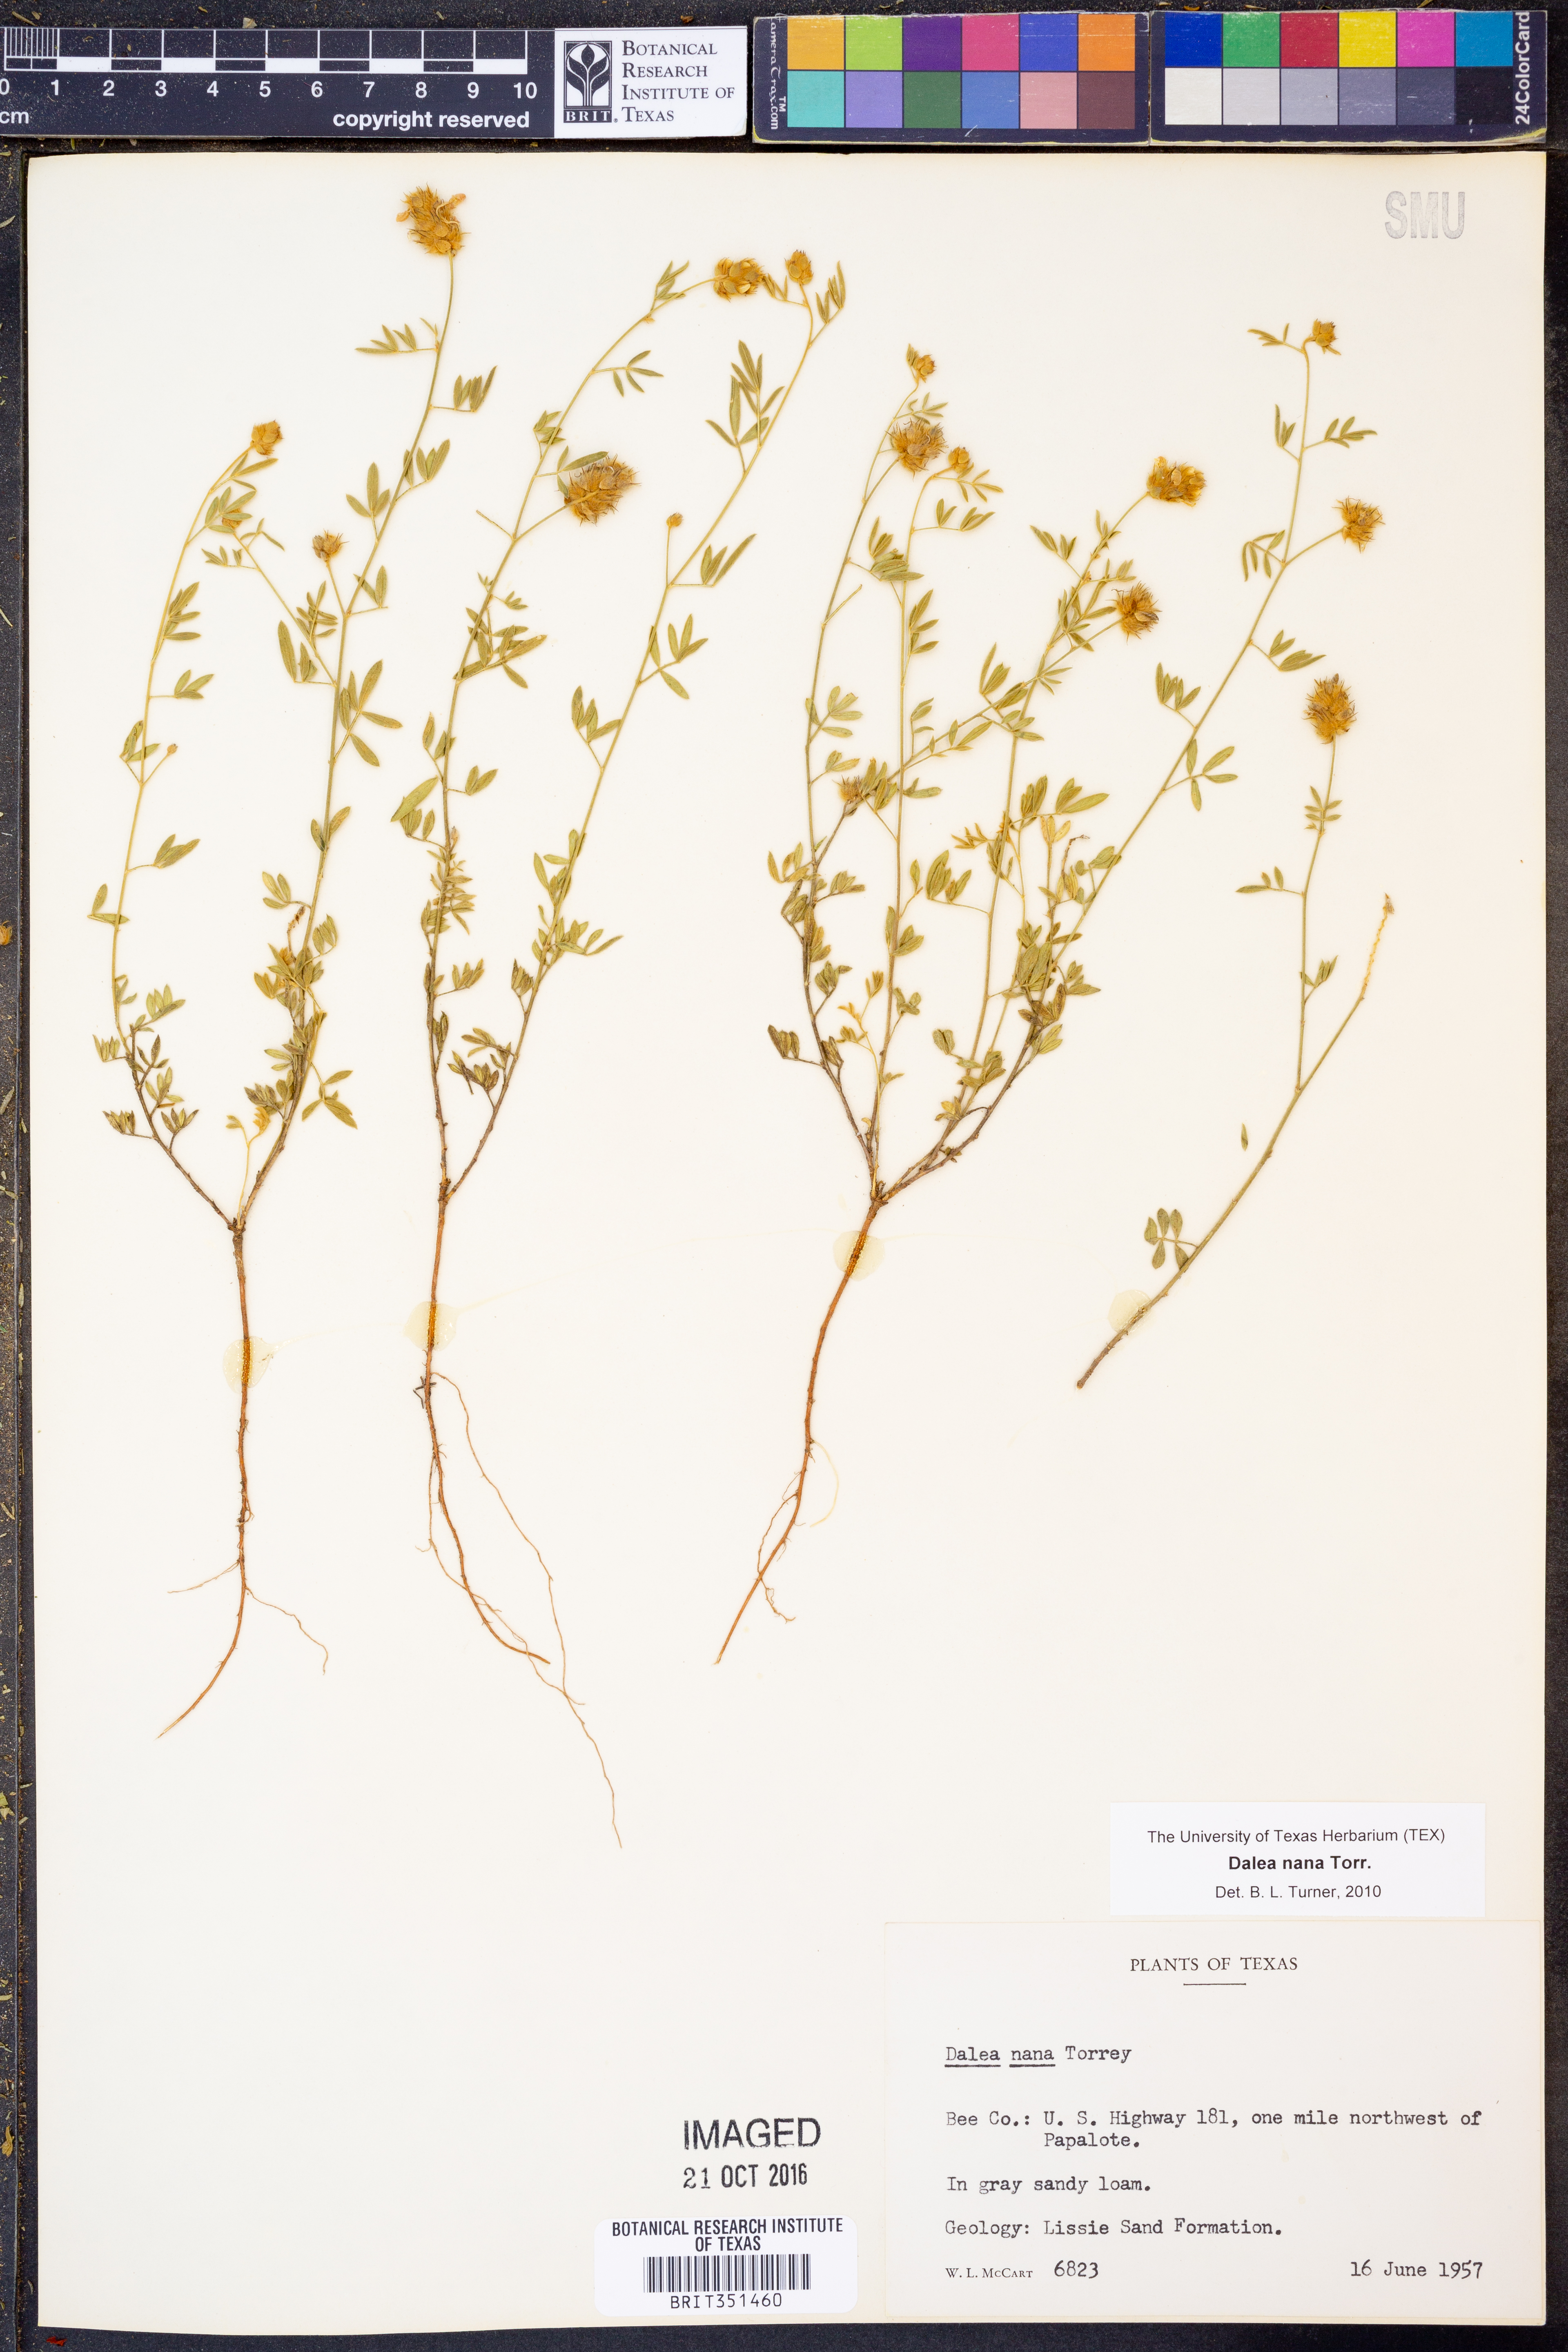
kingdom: Plantae
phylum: Tracheophyta
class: Magnoliopsida
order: Fabales
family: Fabaceae
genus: Dalea
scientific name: Dalea nana
